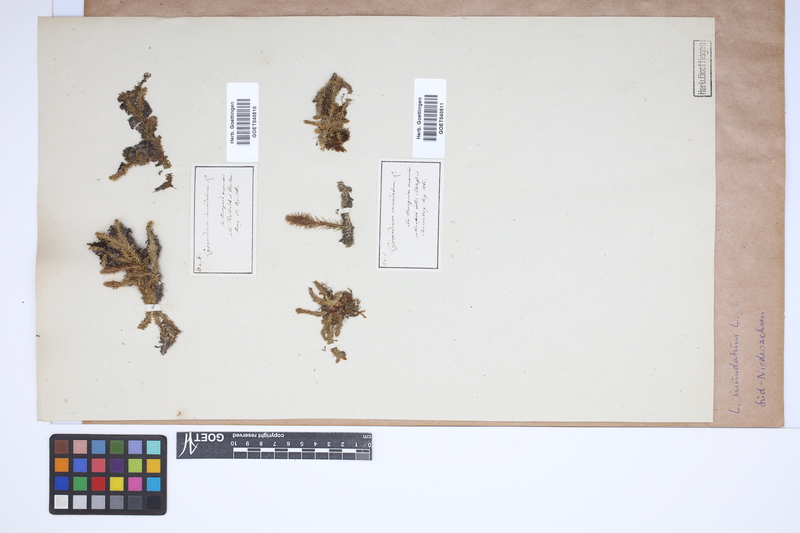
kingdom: Plantae
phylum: Tracheophyta
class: Lycopodiopsida
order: Lycopodiales
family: Lycopodiaceae
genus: Lycopodiella
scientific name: Lycopodiella inundata
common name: Marsh clubmoss
